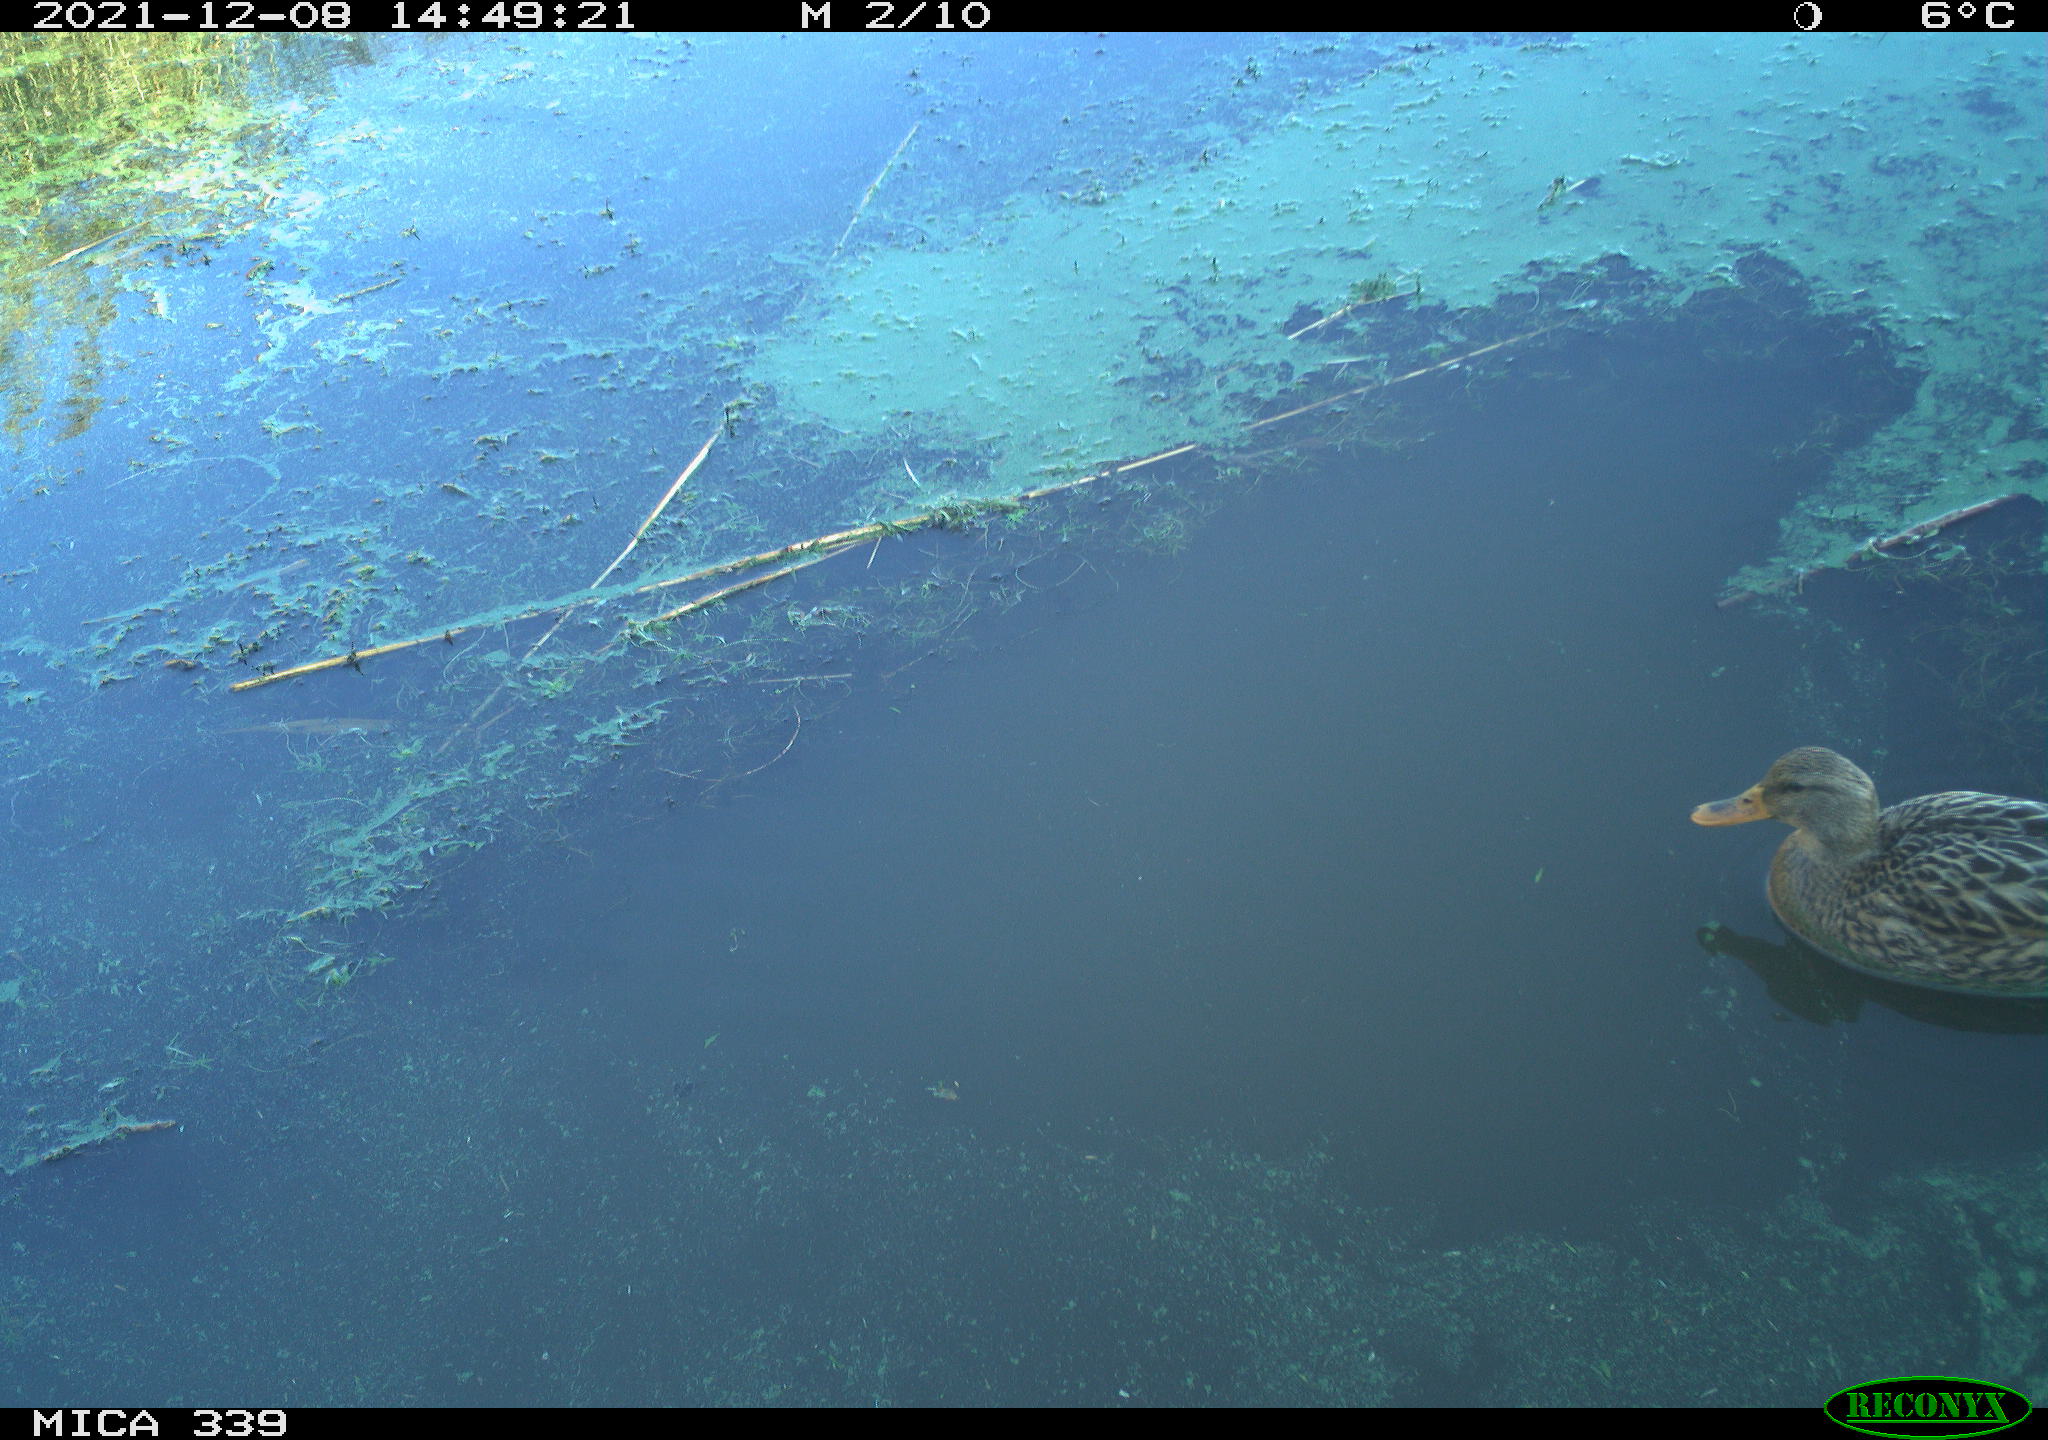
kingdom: Animalia
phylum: Chordata
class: Aves
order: Anseriformes
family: Anatidae
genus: Anas
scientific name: Anas platyrhynchos
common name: Mallard
